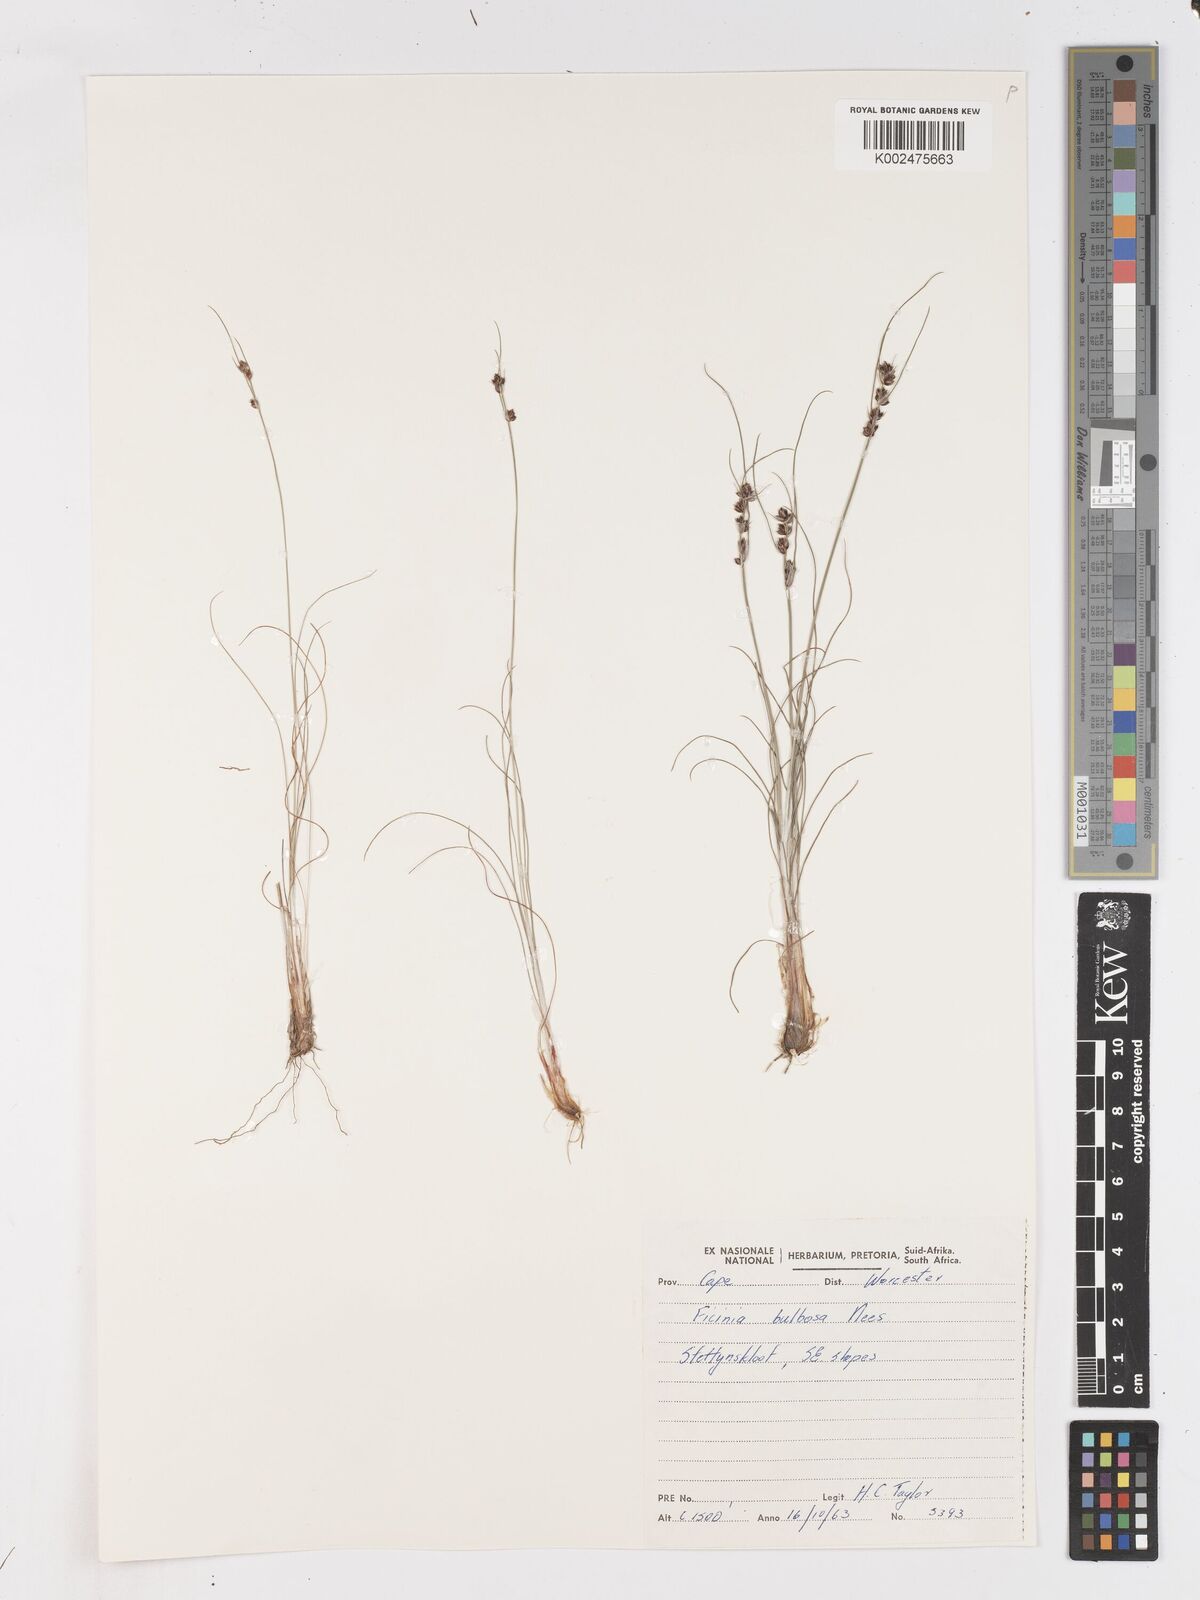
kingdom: Plantae
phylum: Tracheophyta
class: Liliopsida
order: Poales
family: Cyperaceae
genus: Ficinia
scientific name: Ficinia bulbosa
